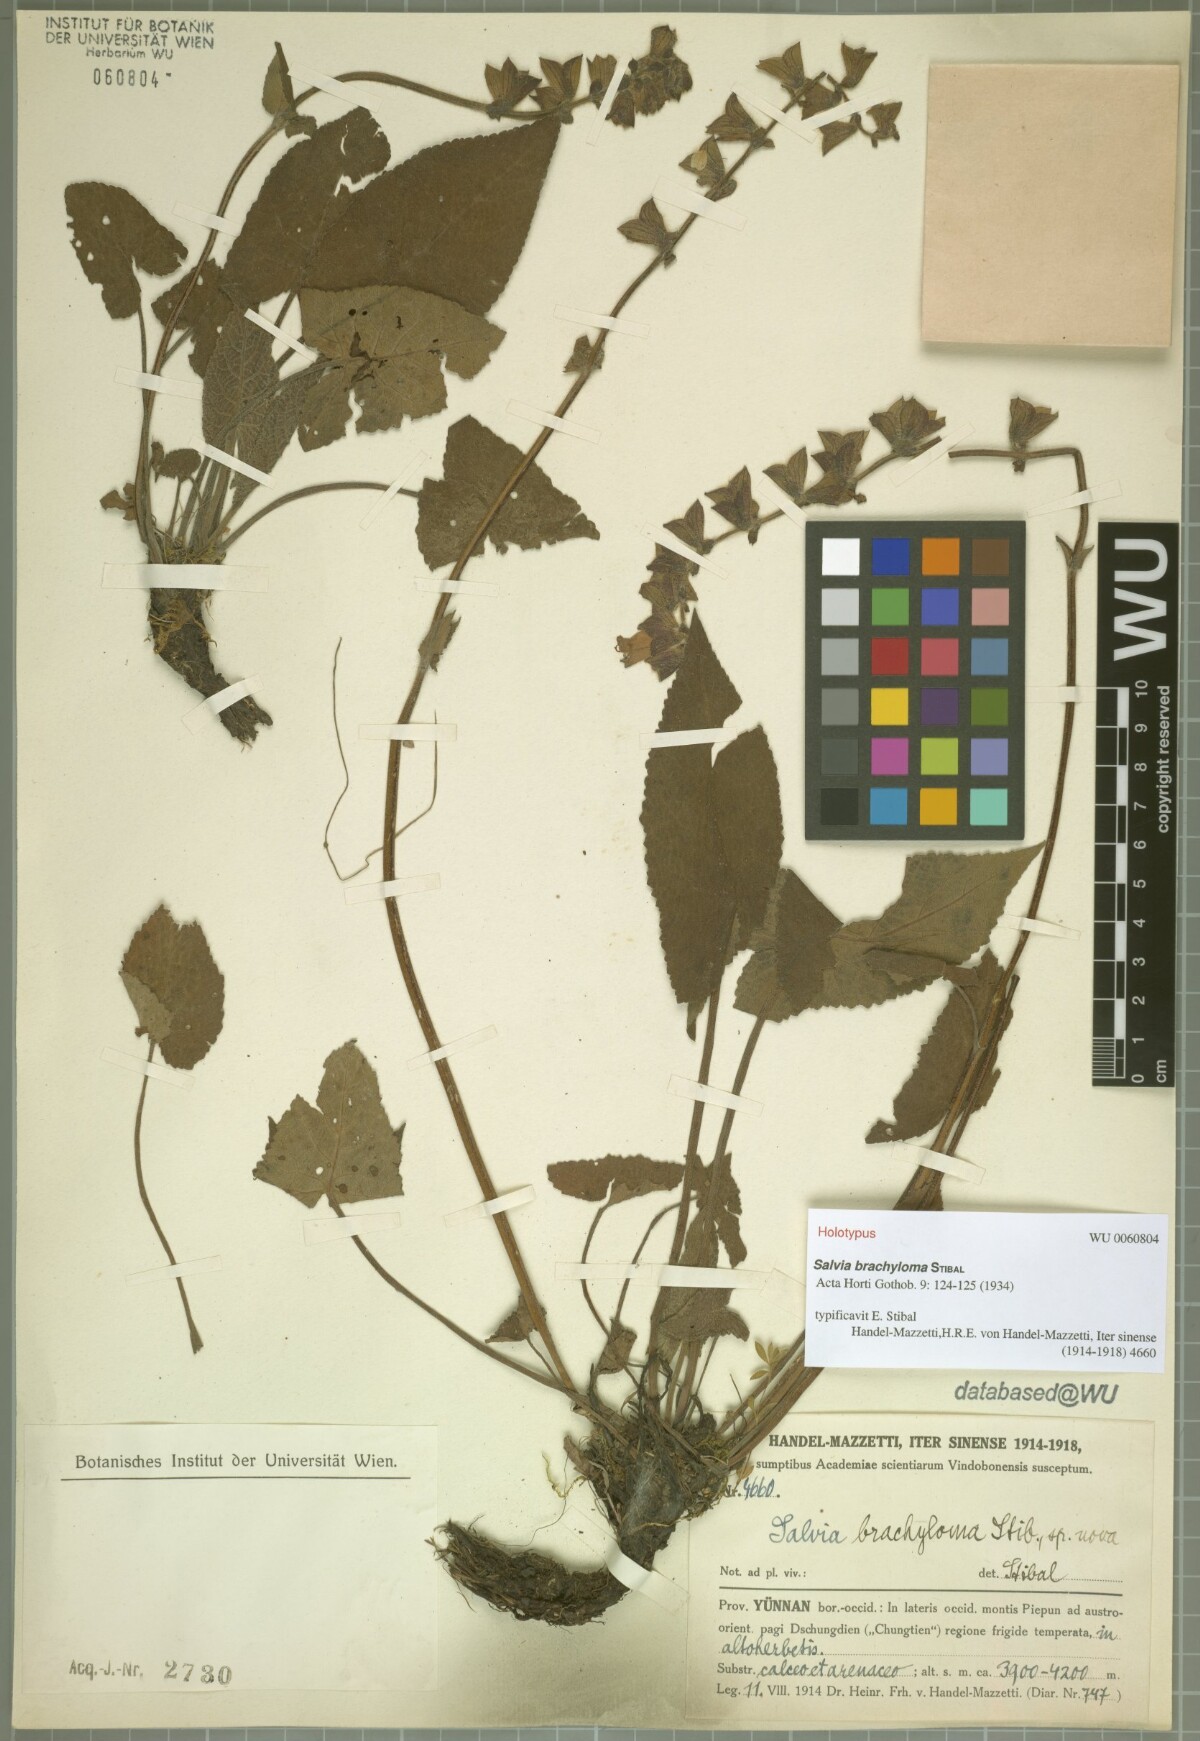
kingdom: Plantae
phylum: Tracheophyta
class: Magnoliopsida
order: Lamiales
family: Lamiaceae
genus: Salvia
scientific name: Salvia brachyloma
